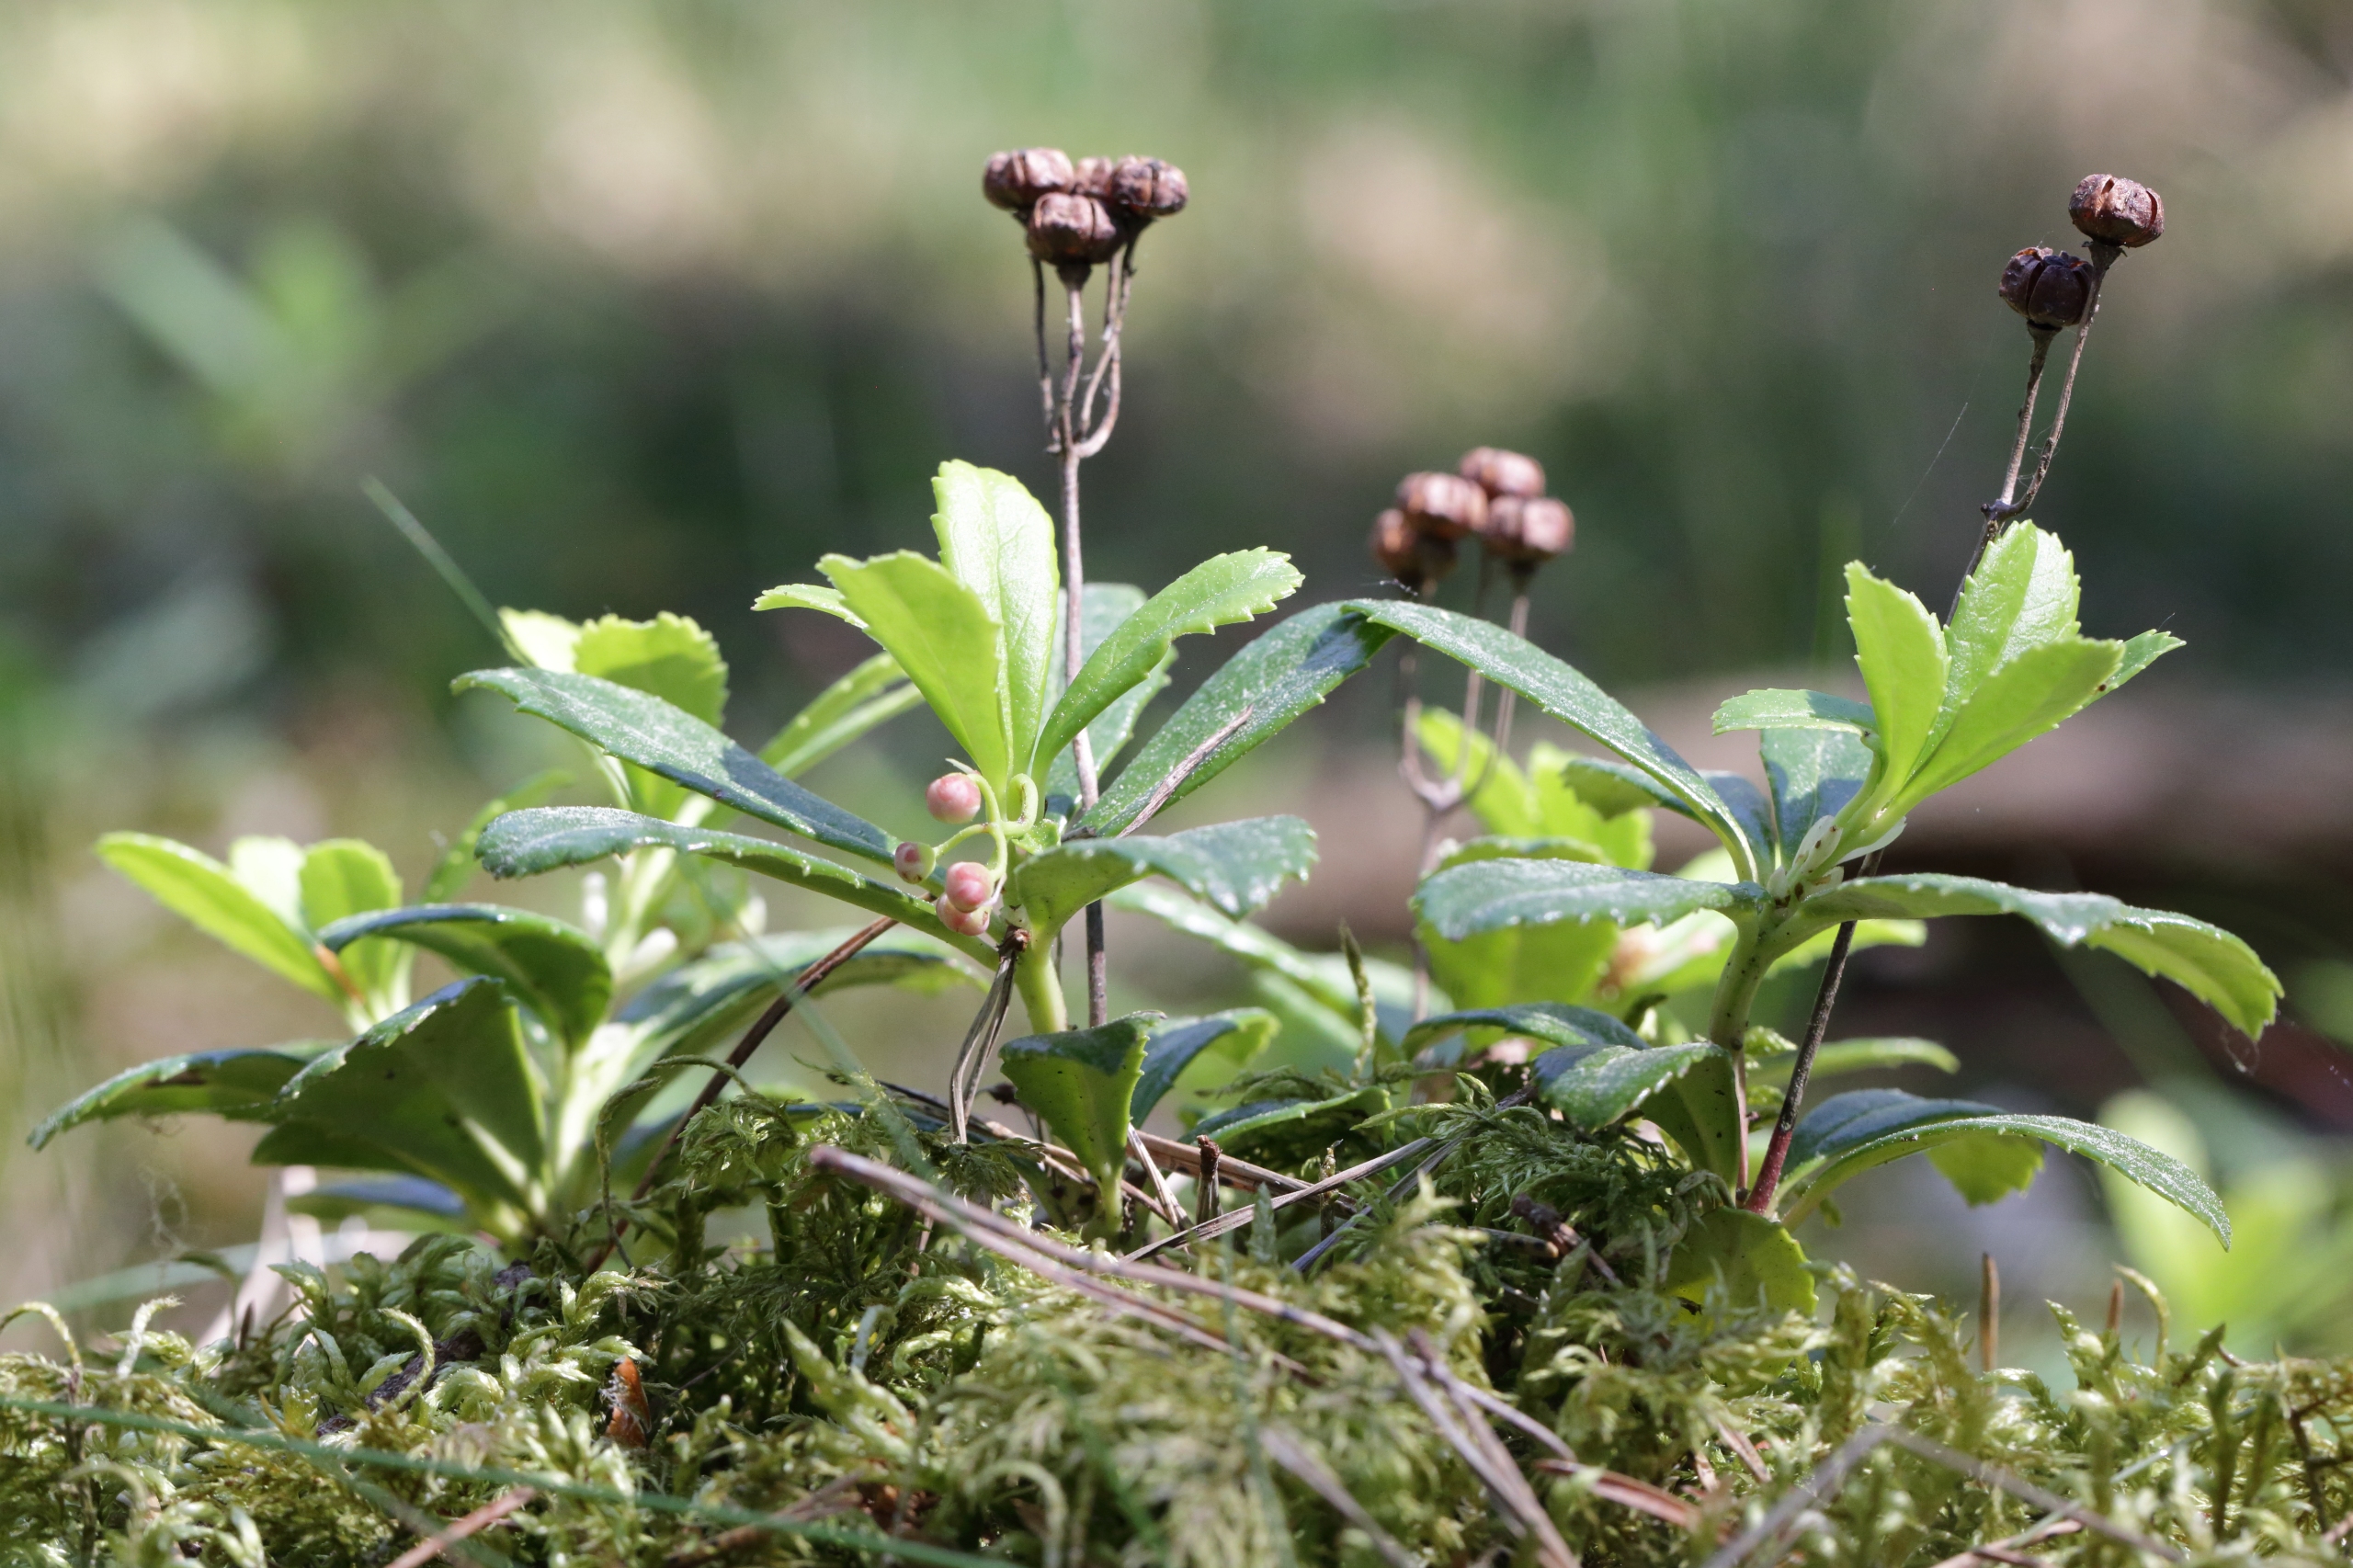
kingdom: Plantae
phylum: Tracheophyta
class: Magnoliopsida
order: Ericales
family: Ericaceae
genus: Chimaphila
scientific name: Chimaphila umbellata
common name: Skærm-vintergrøn
